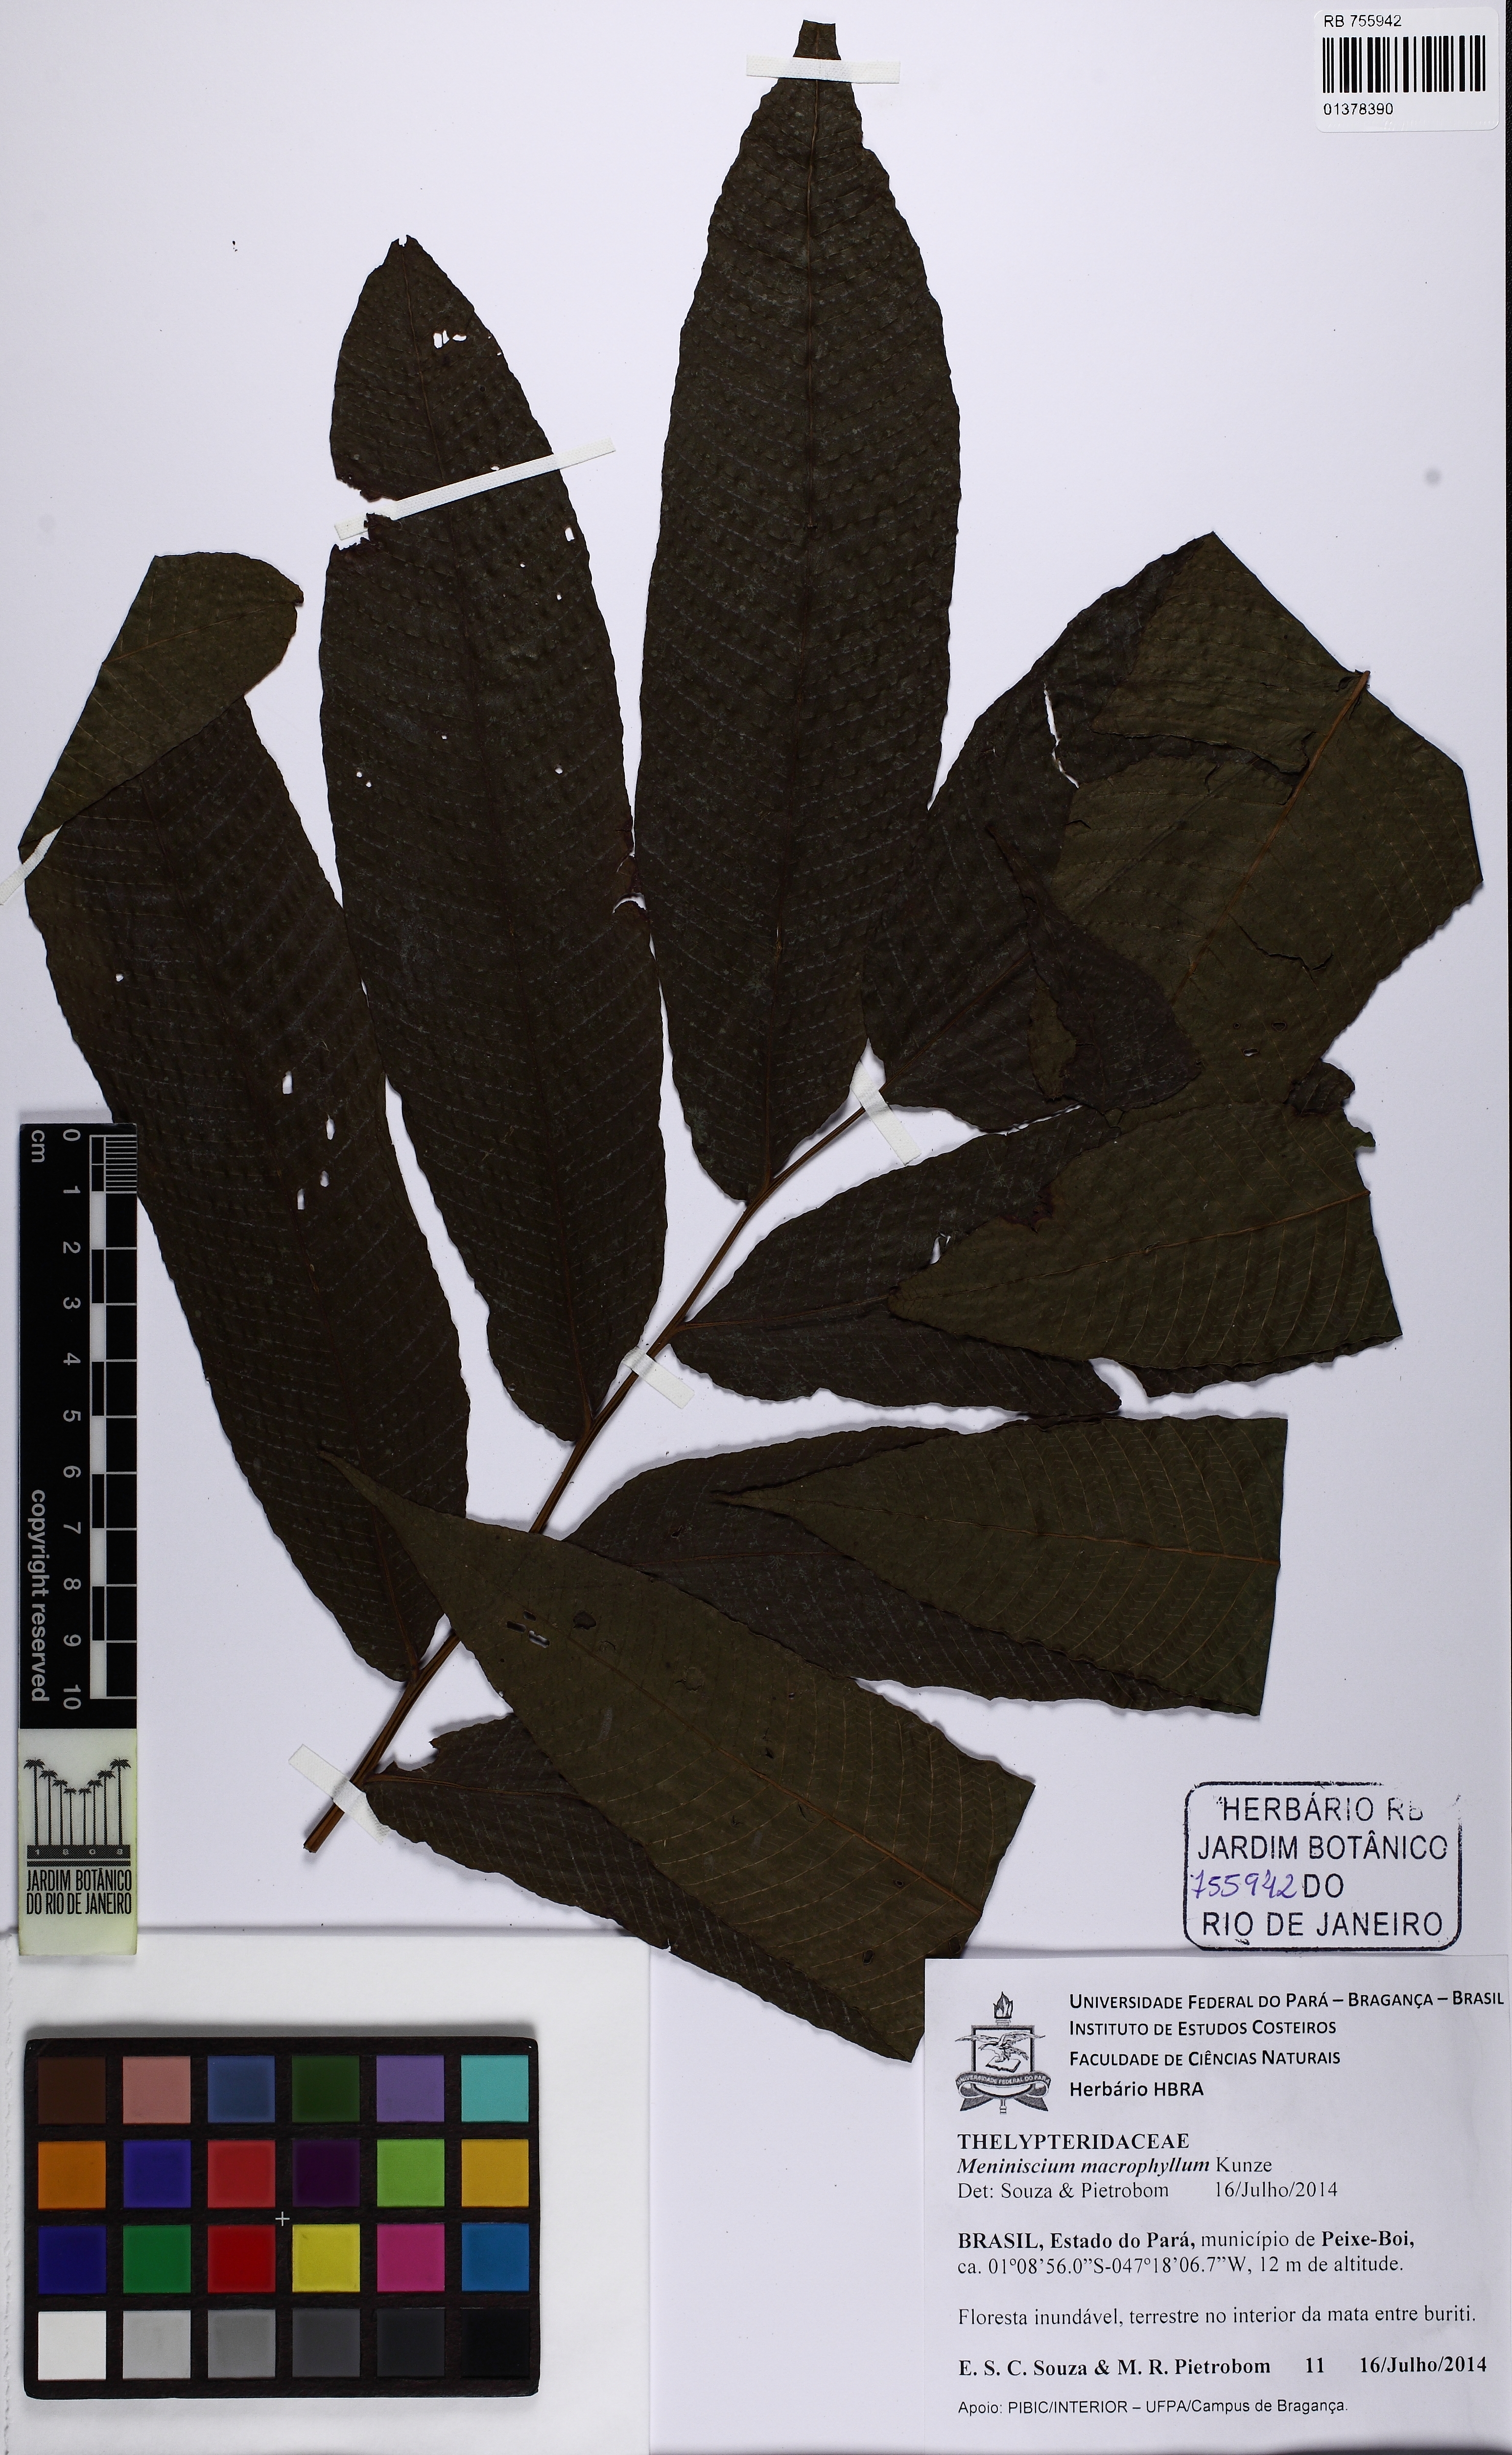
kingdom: Plantae
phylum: Tracheophyta
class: Polypodiopsida
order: Polypodiales
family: Thelypteridaceae
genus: Meniscium
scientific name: Meniscium macrophyllum
